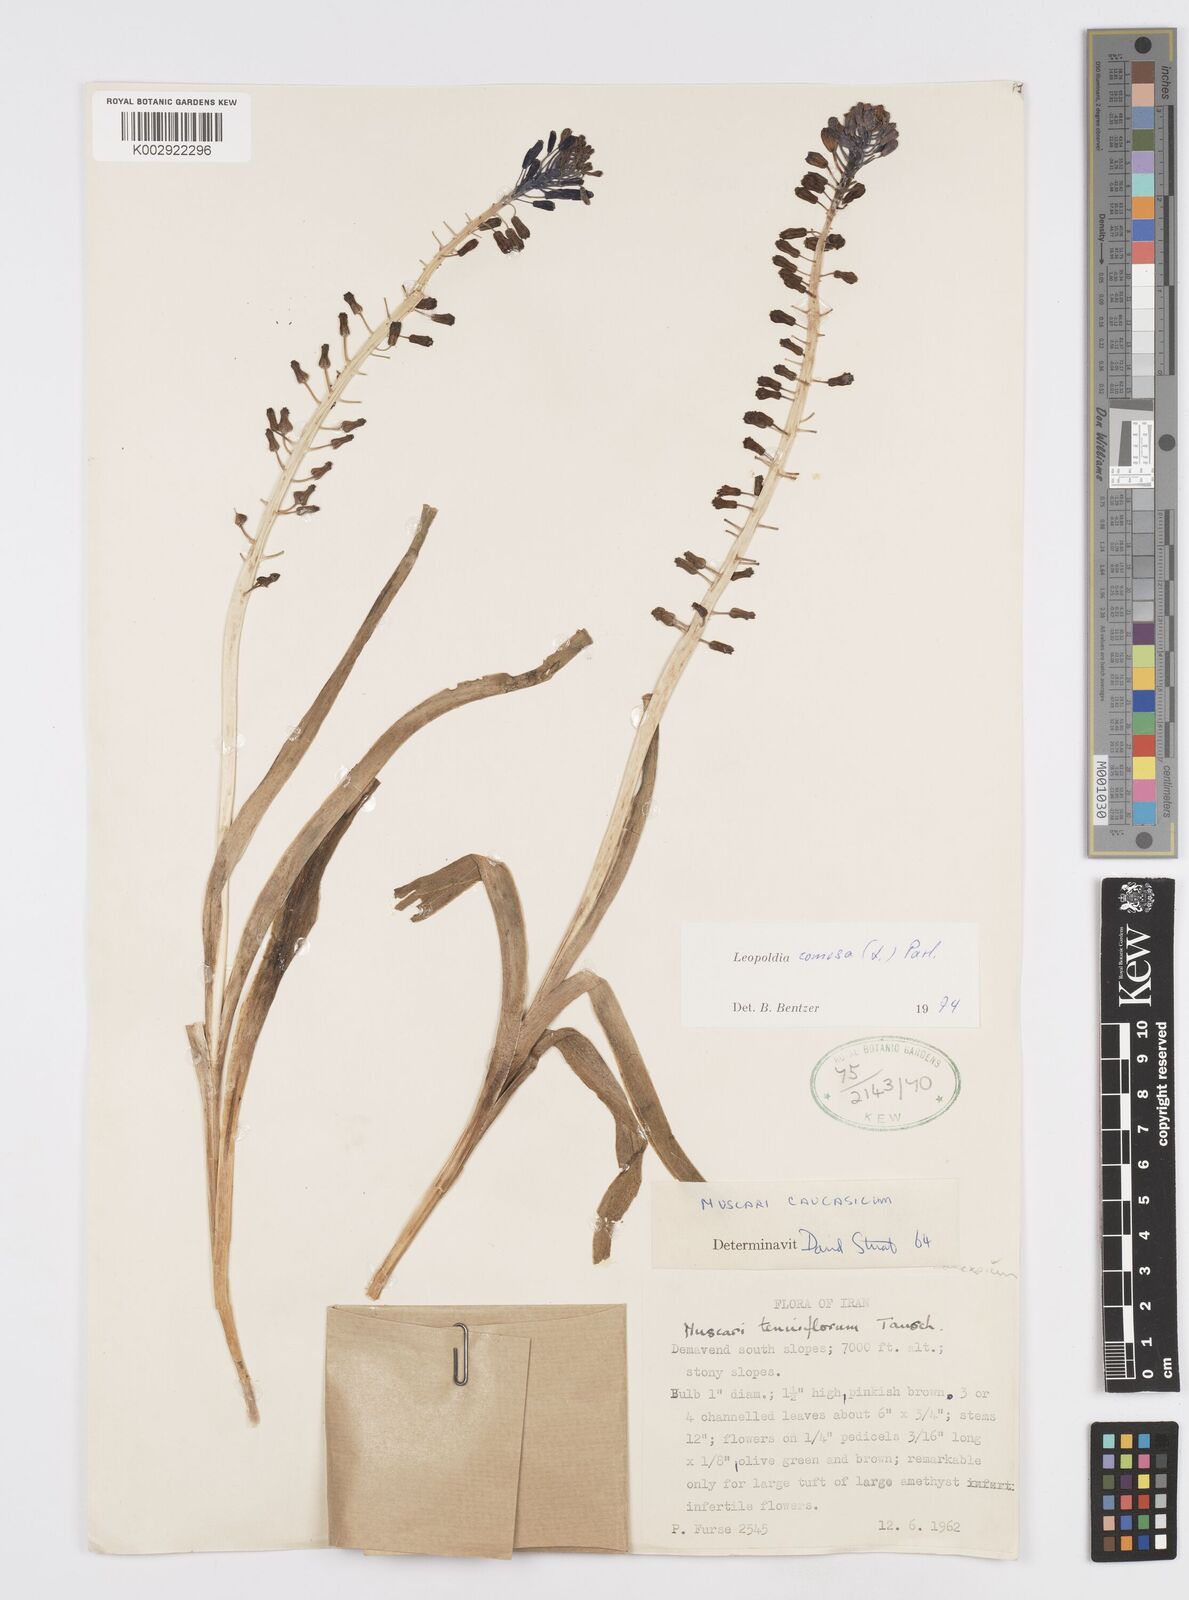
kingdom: Plantae
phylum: Tracheophyta
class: Liliopsida
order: Asparagales
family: Asparagaceae
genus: Muscari
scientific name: Muscari comosum
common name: Tassel hyacinth
